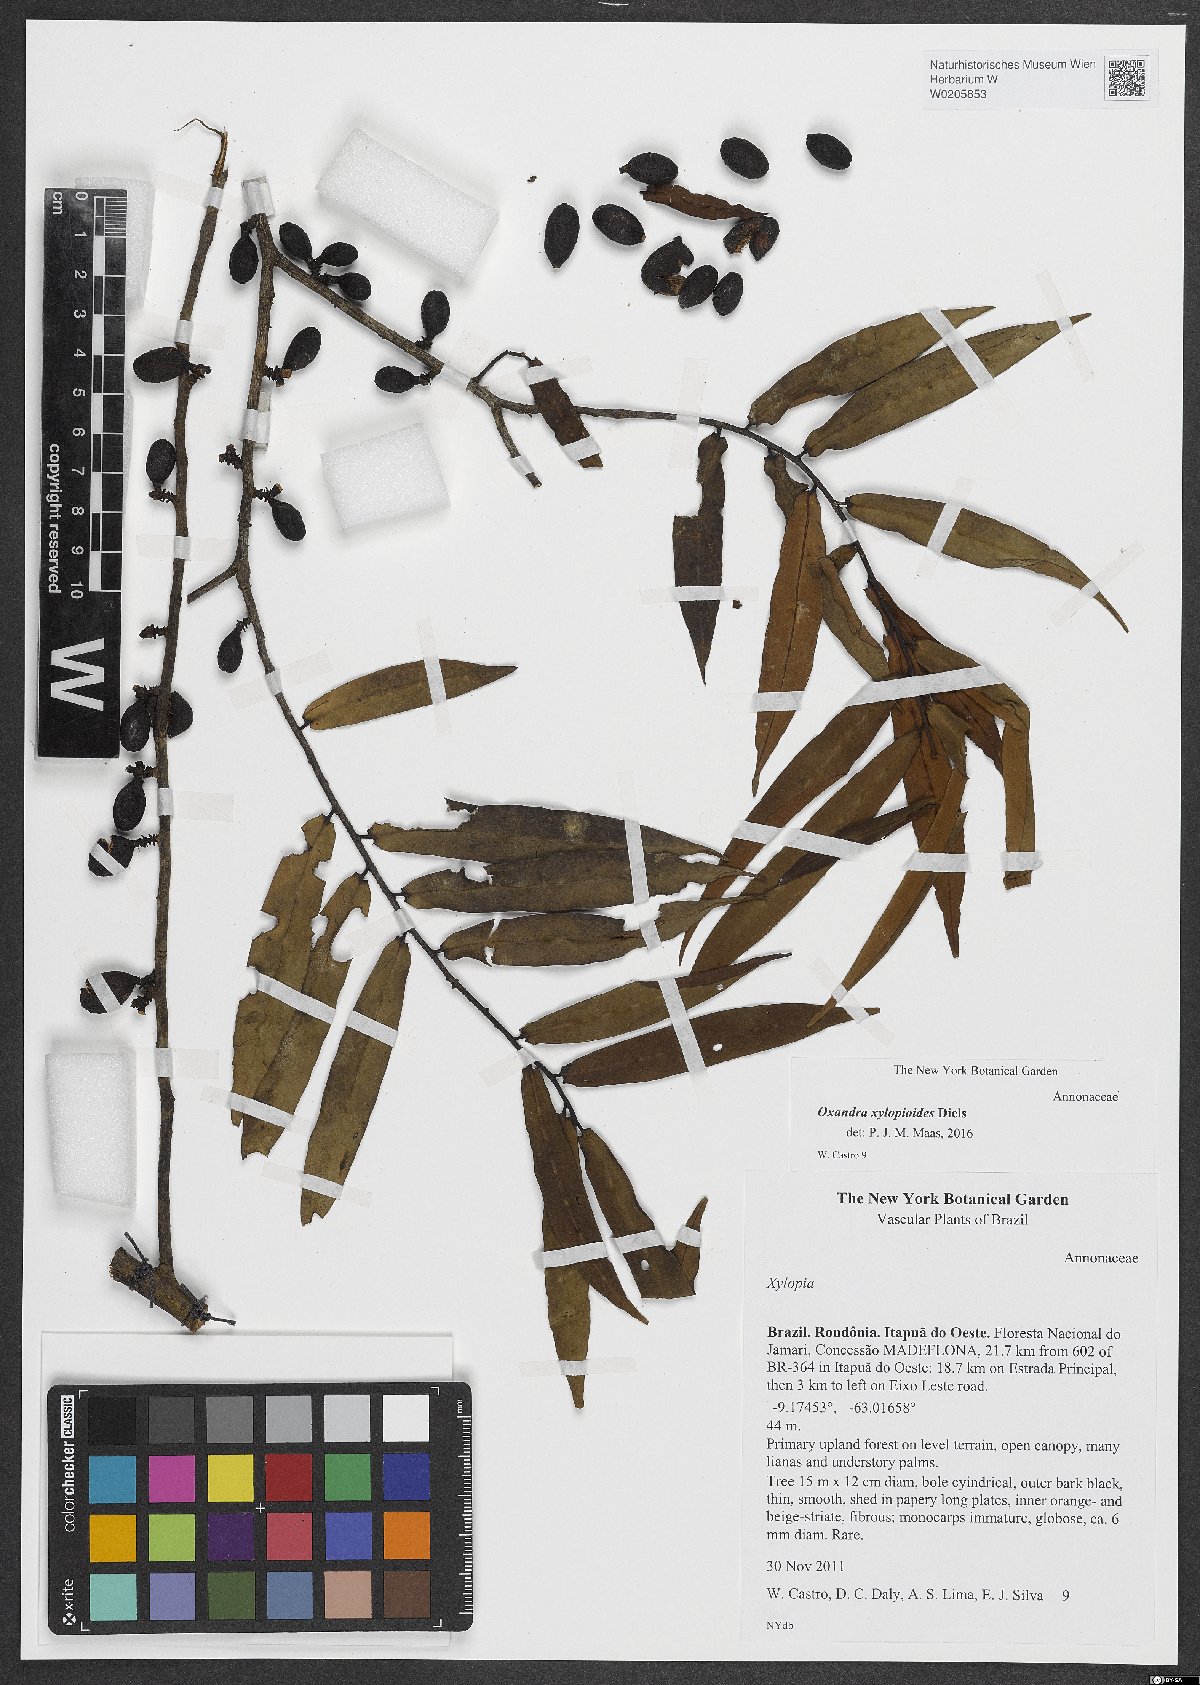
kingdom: Plantae
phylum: Tracheophyta
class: Magnoliopsida
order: Magnoliales
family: Annonaceae
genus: Oxandra
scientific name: Oxandra xylopioides
